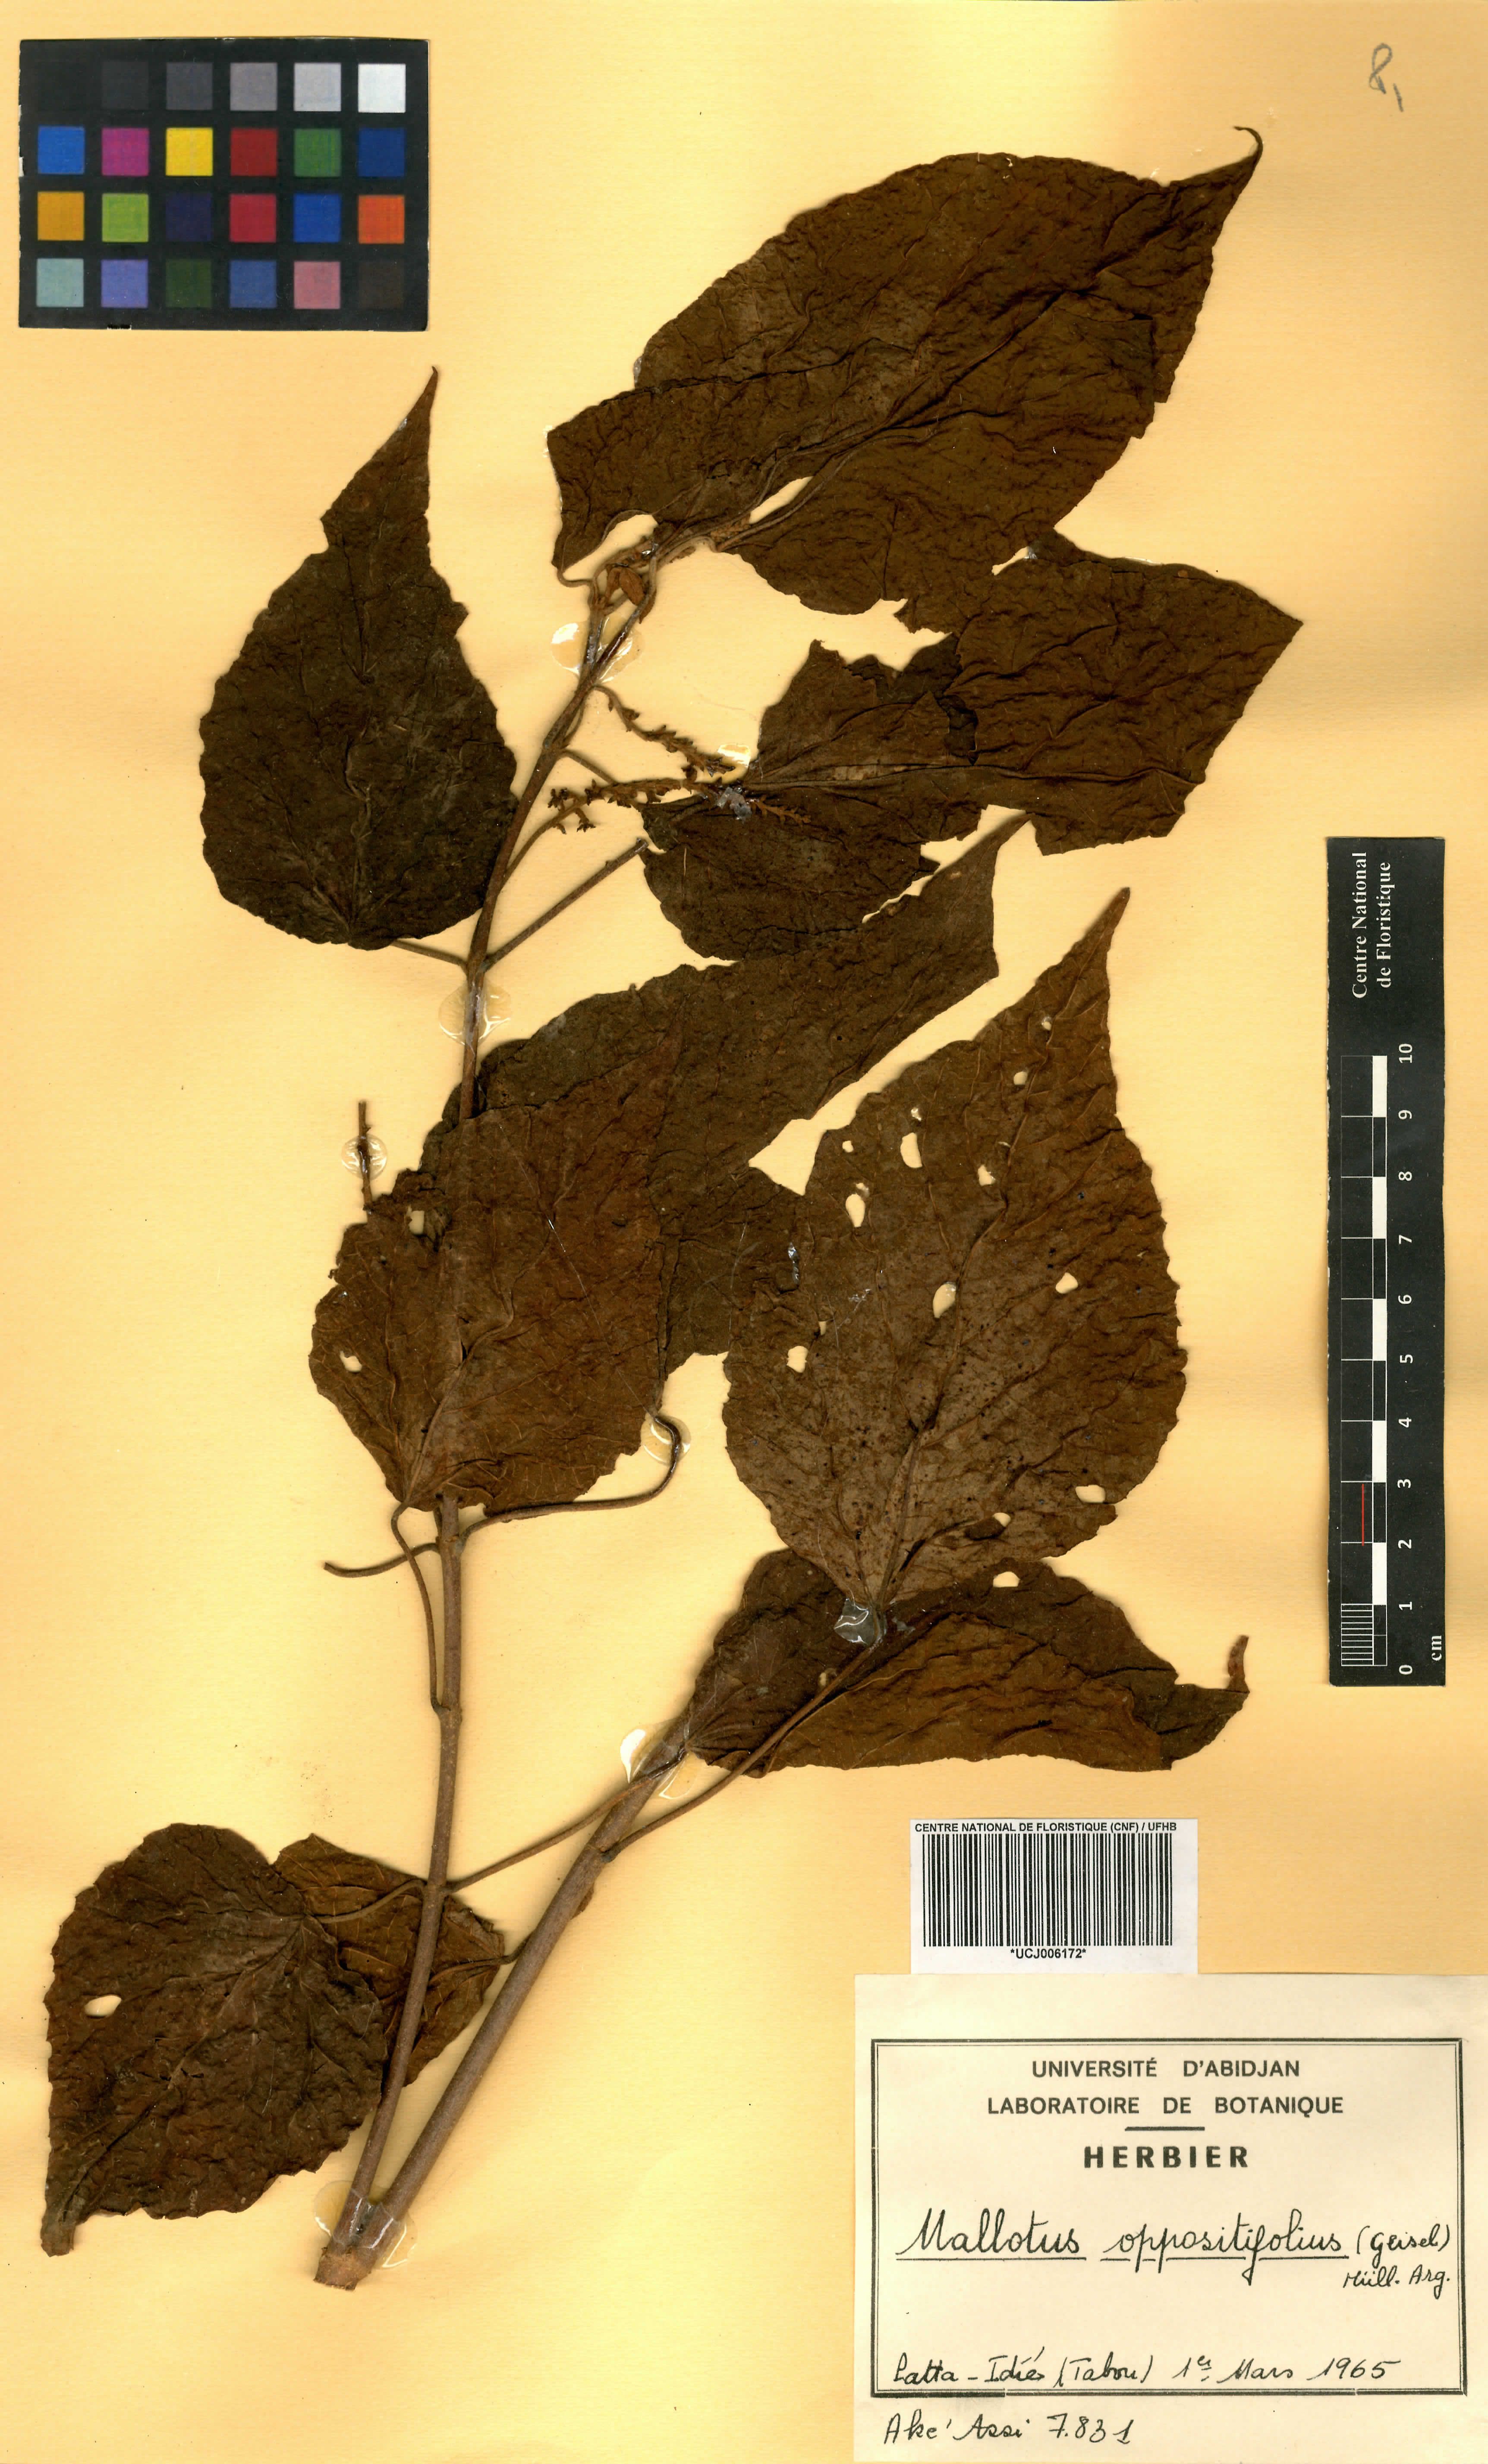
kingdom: Plantae
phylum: Tracheophyta
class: Magnoliopsida
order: Malpighiales
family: Euphorbiaceae
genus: Mallotus
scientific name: Mallotus oppositifolius
